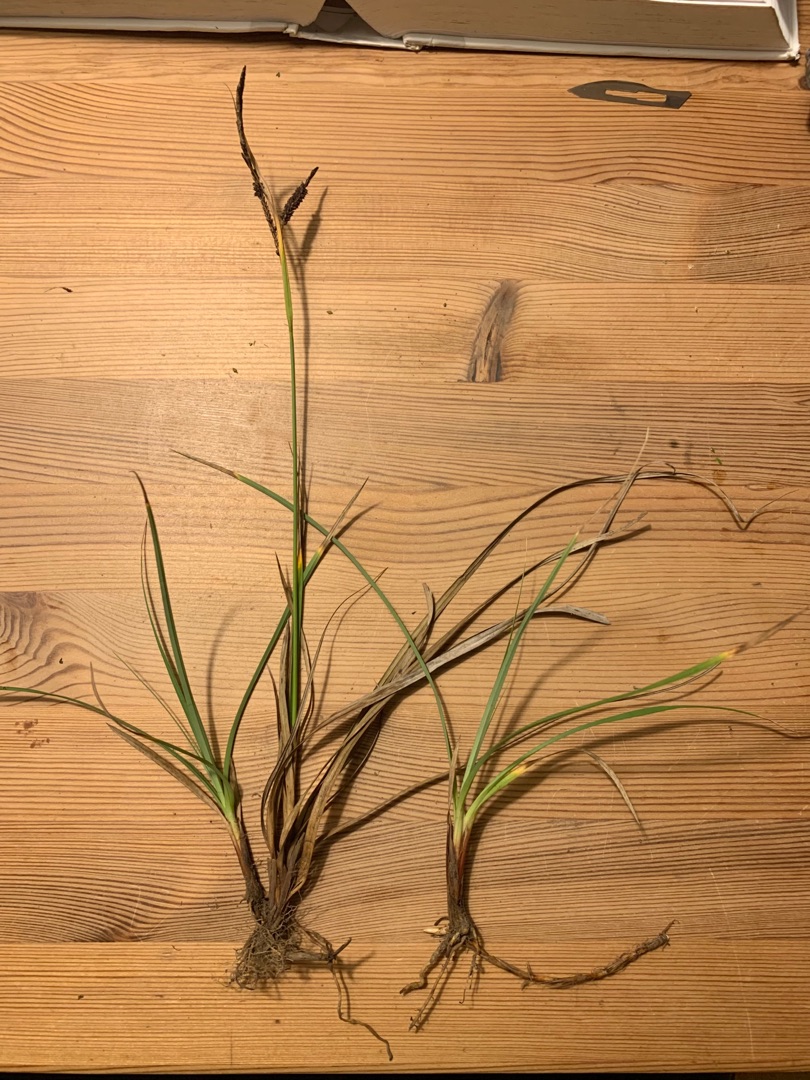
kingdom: Plantae
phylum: Tracheophyta
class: Liliopsida
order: Poales
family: Cyperaceae
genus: Carex
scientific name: Carex flacca
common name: Blågrøn star
